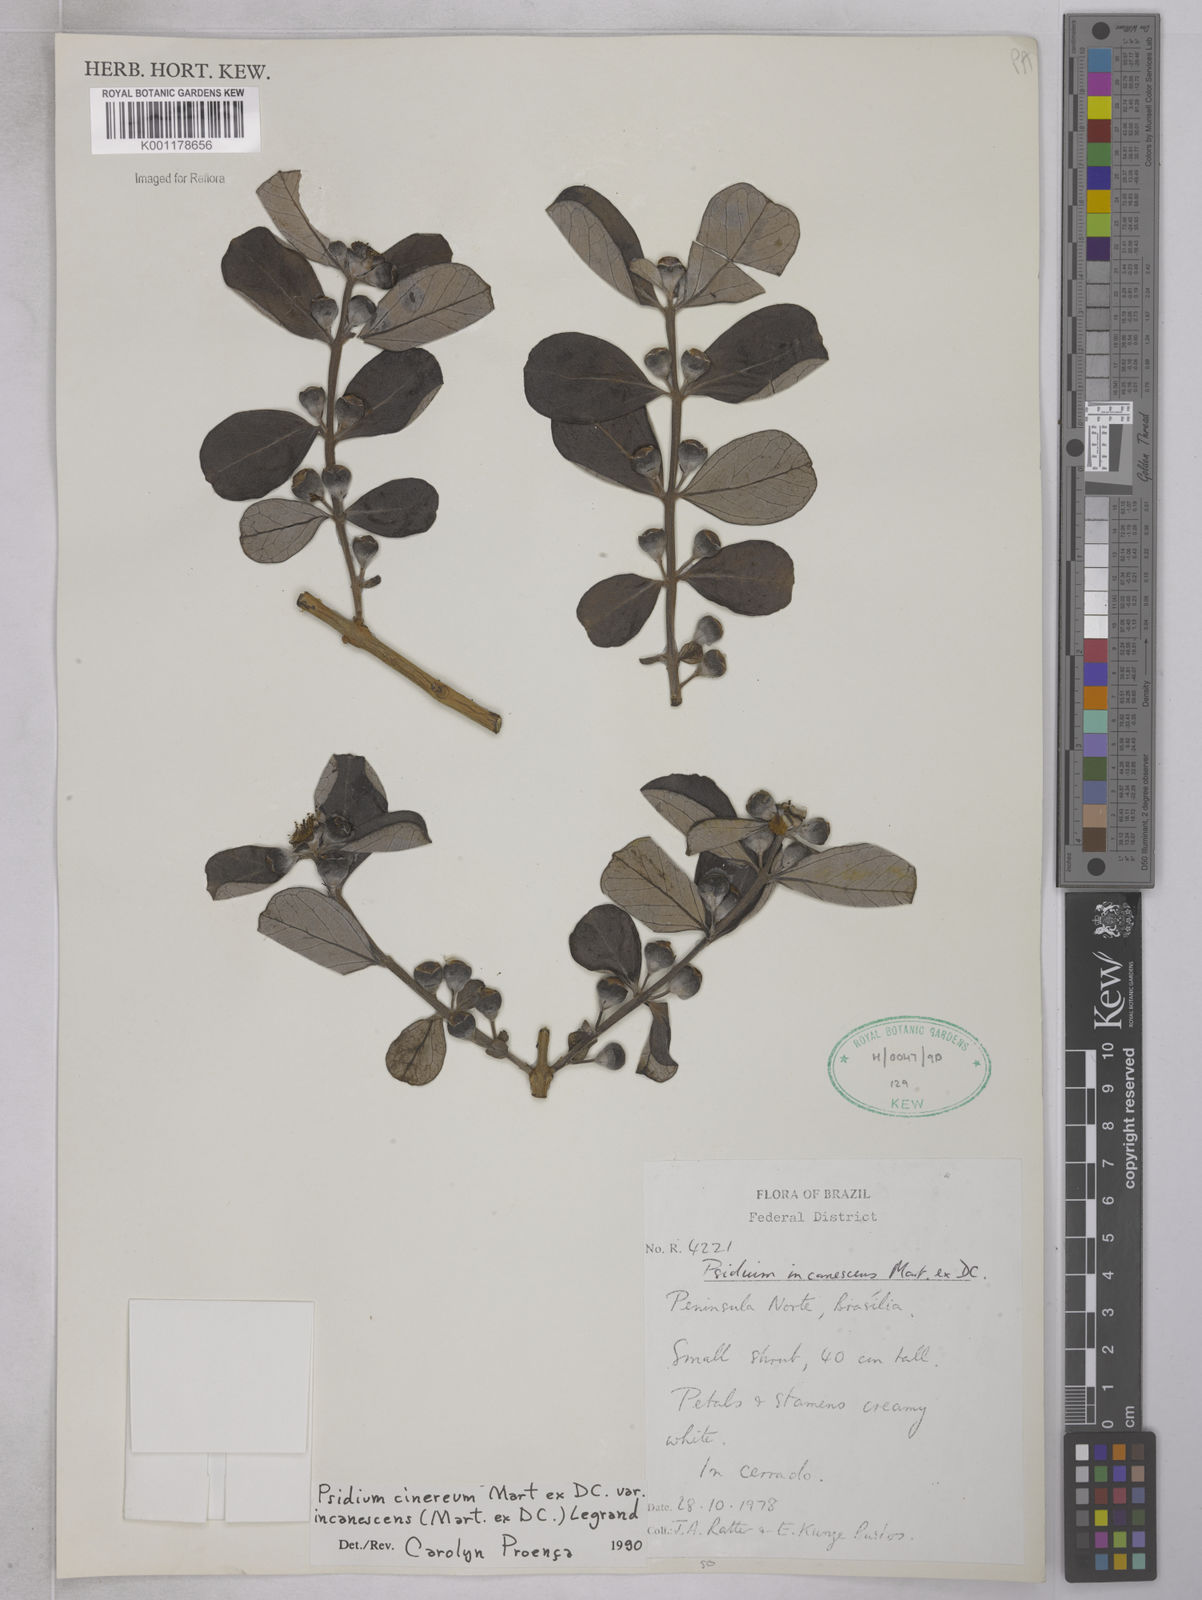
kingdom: Plantae
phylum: Tracheophyta
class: Magnoliopsida
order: Myrtales
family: Myrtaceae
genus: Psidium
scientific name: Psidium grandifolium
